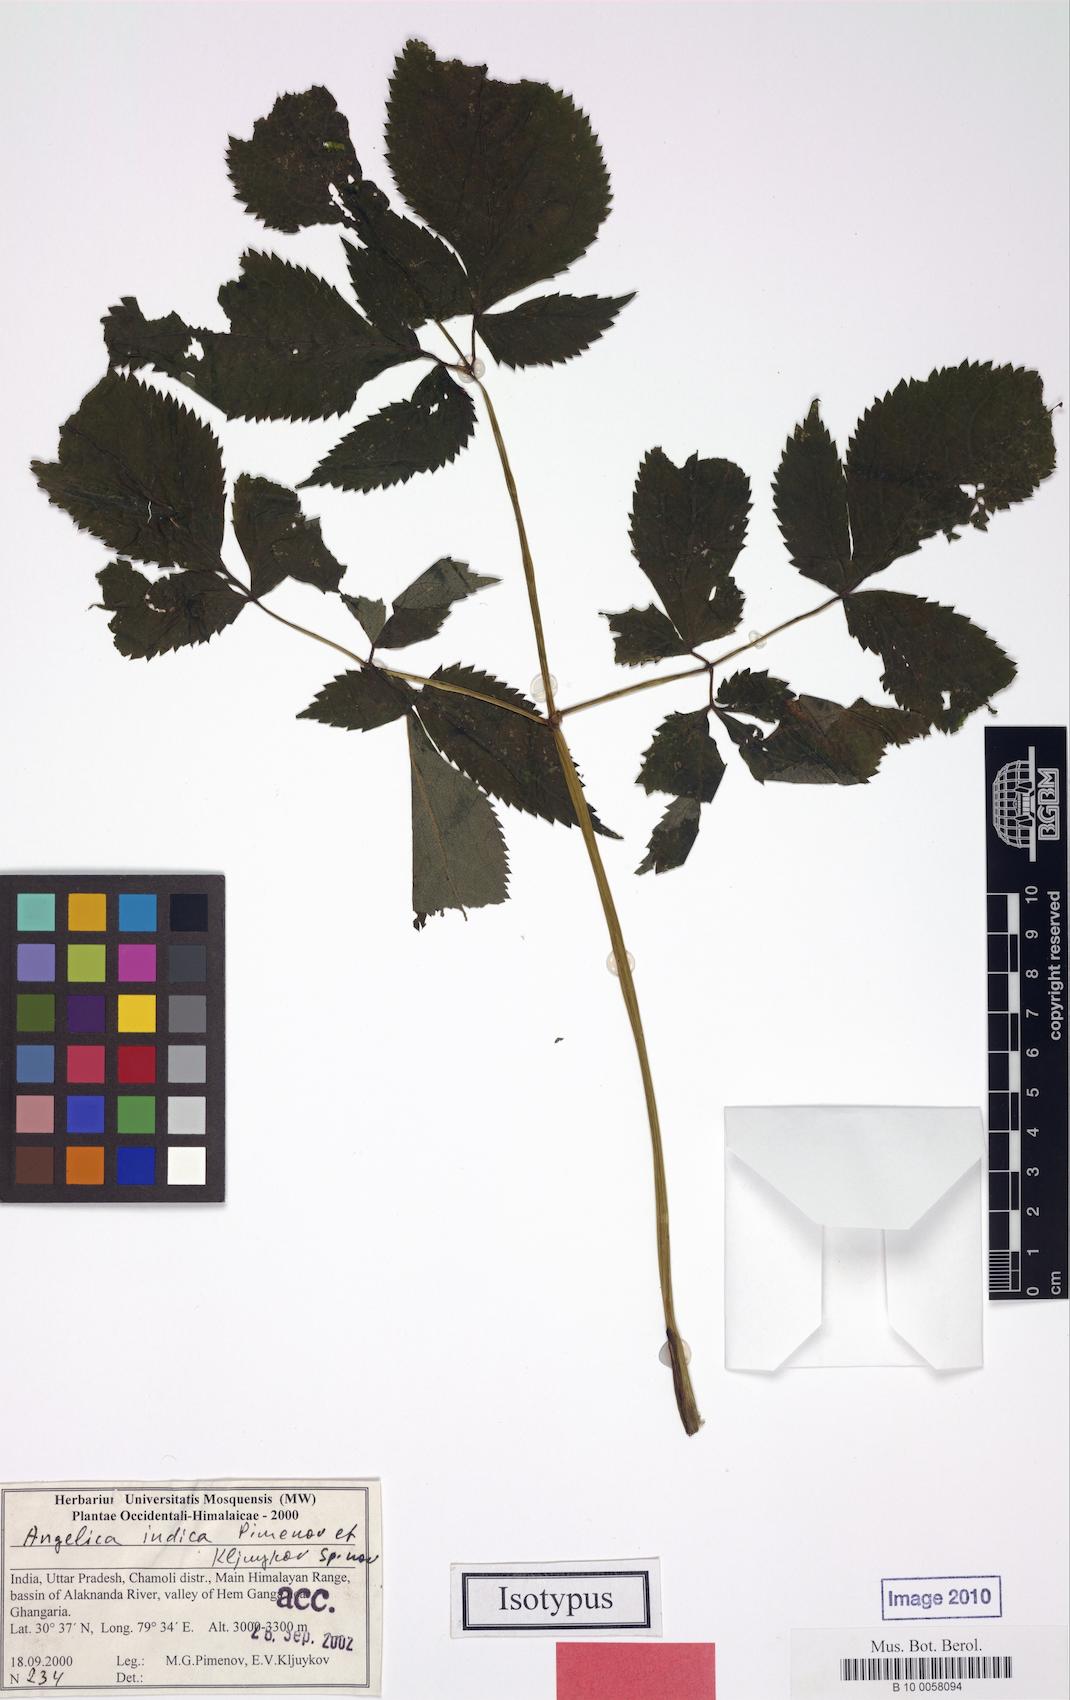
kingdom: Plantae
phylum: Tracheophyta
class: Magnoliopsida
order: Apiales
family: Apiaceae
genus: Angelica
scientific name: Angelica indica
